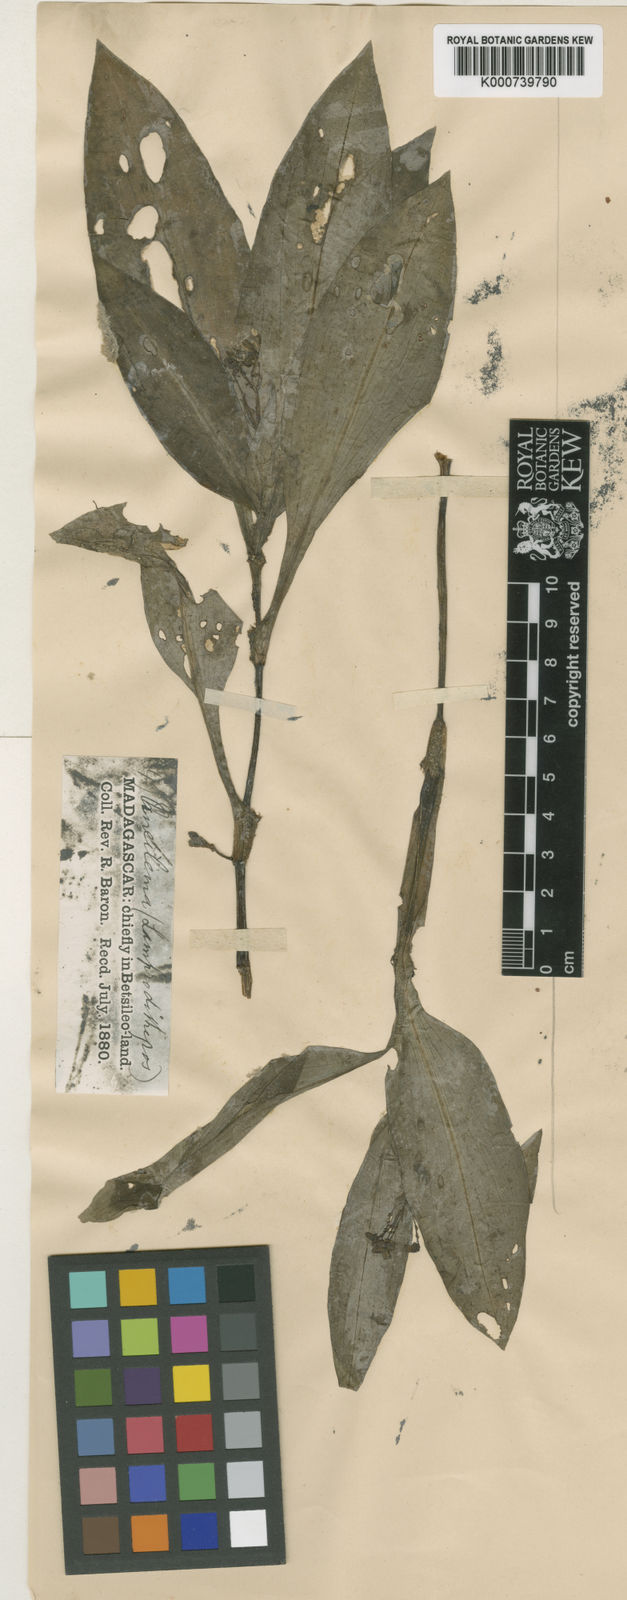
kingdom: Plantae
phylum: Tracheophyta
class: Liliopsida
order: Commelinales
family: Commelinaceae
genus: Pseudoparis
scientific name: Pseudoparis tenera
